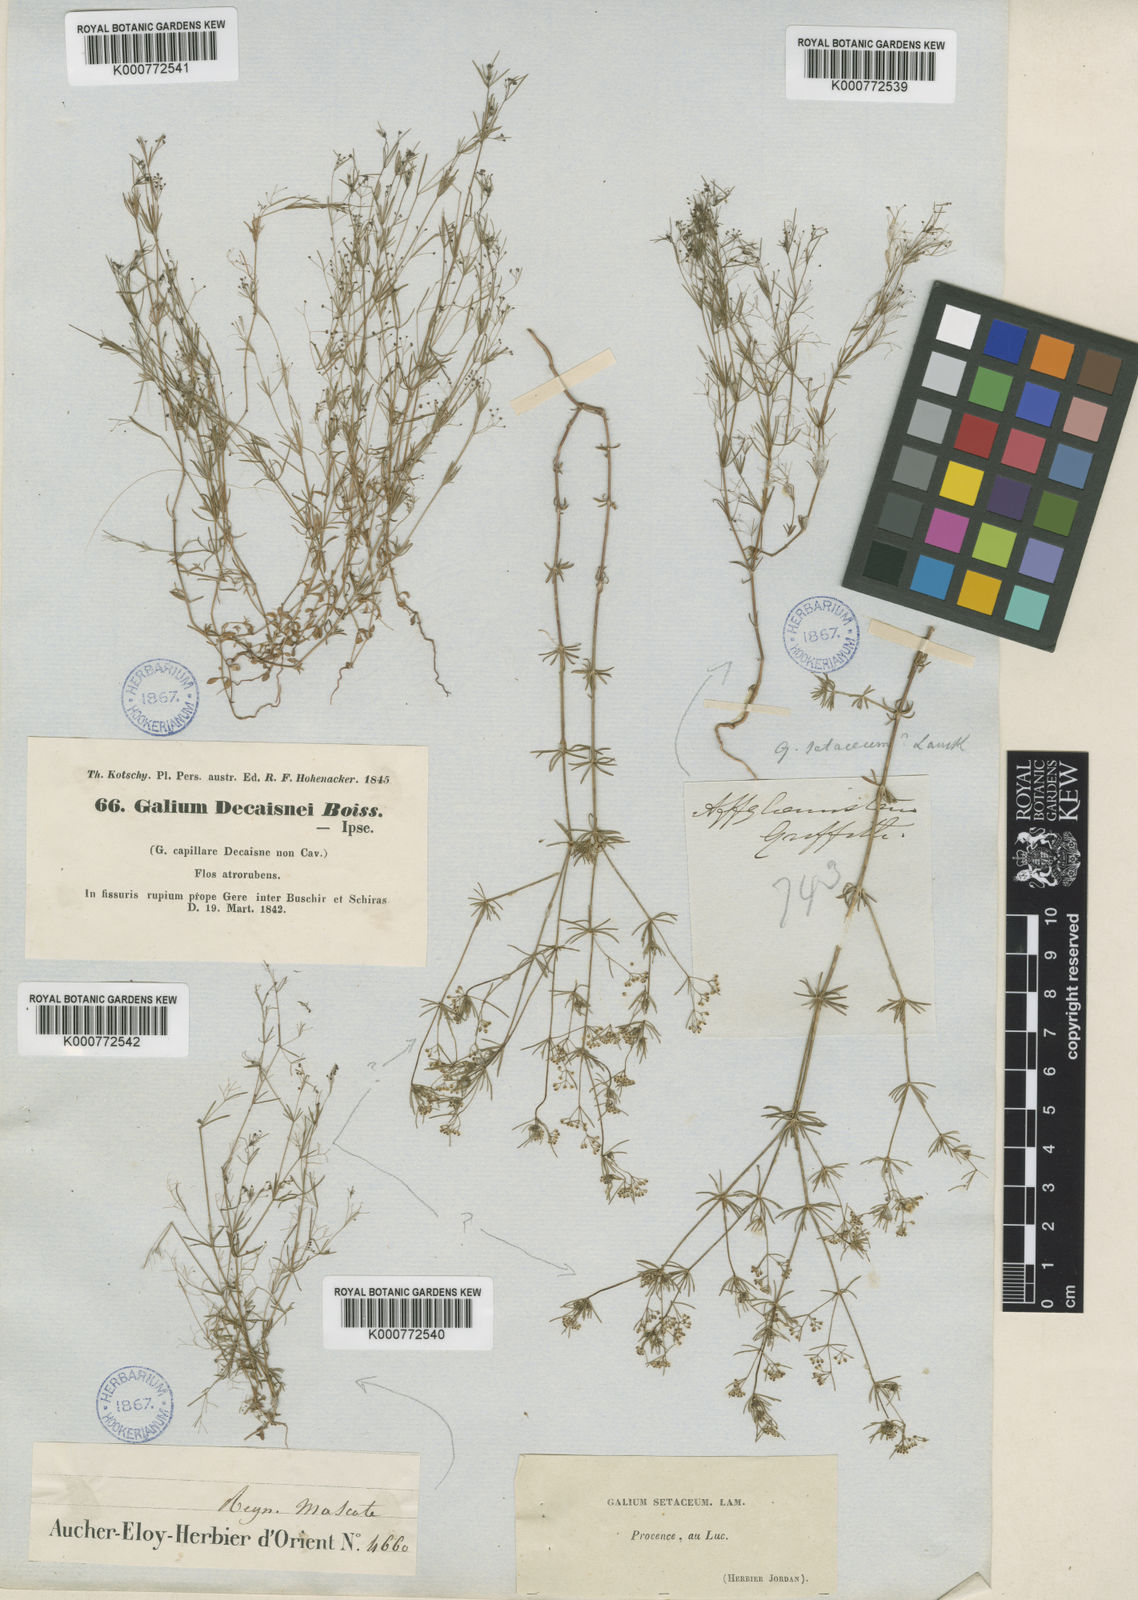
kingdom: Plantae
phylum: Tracheophyta
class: Magnoliopsida
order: Gentianales
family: Rubiaceae
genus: Galium
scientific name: Galium setaceum
